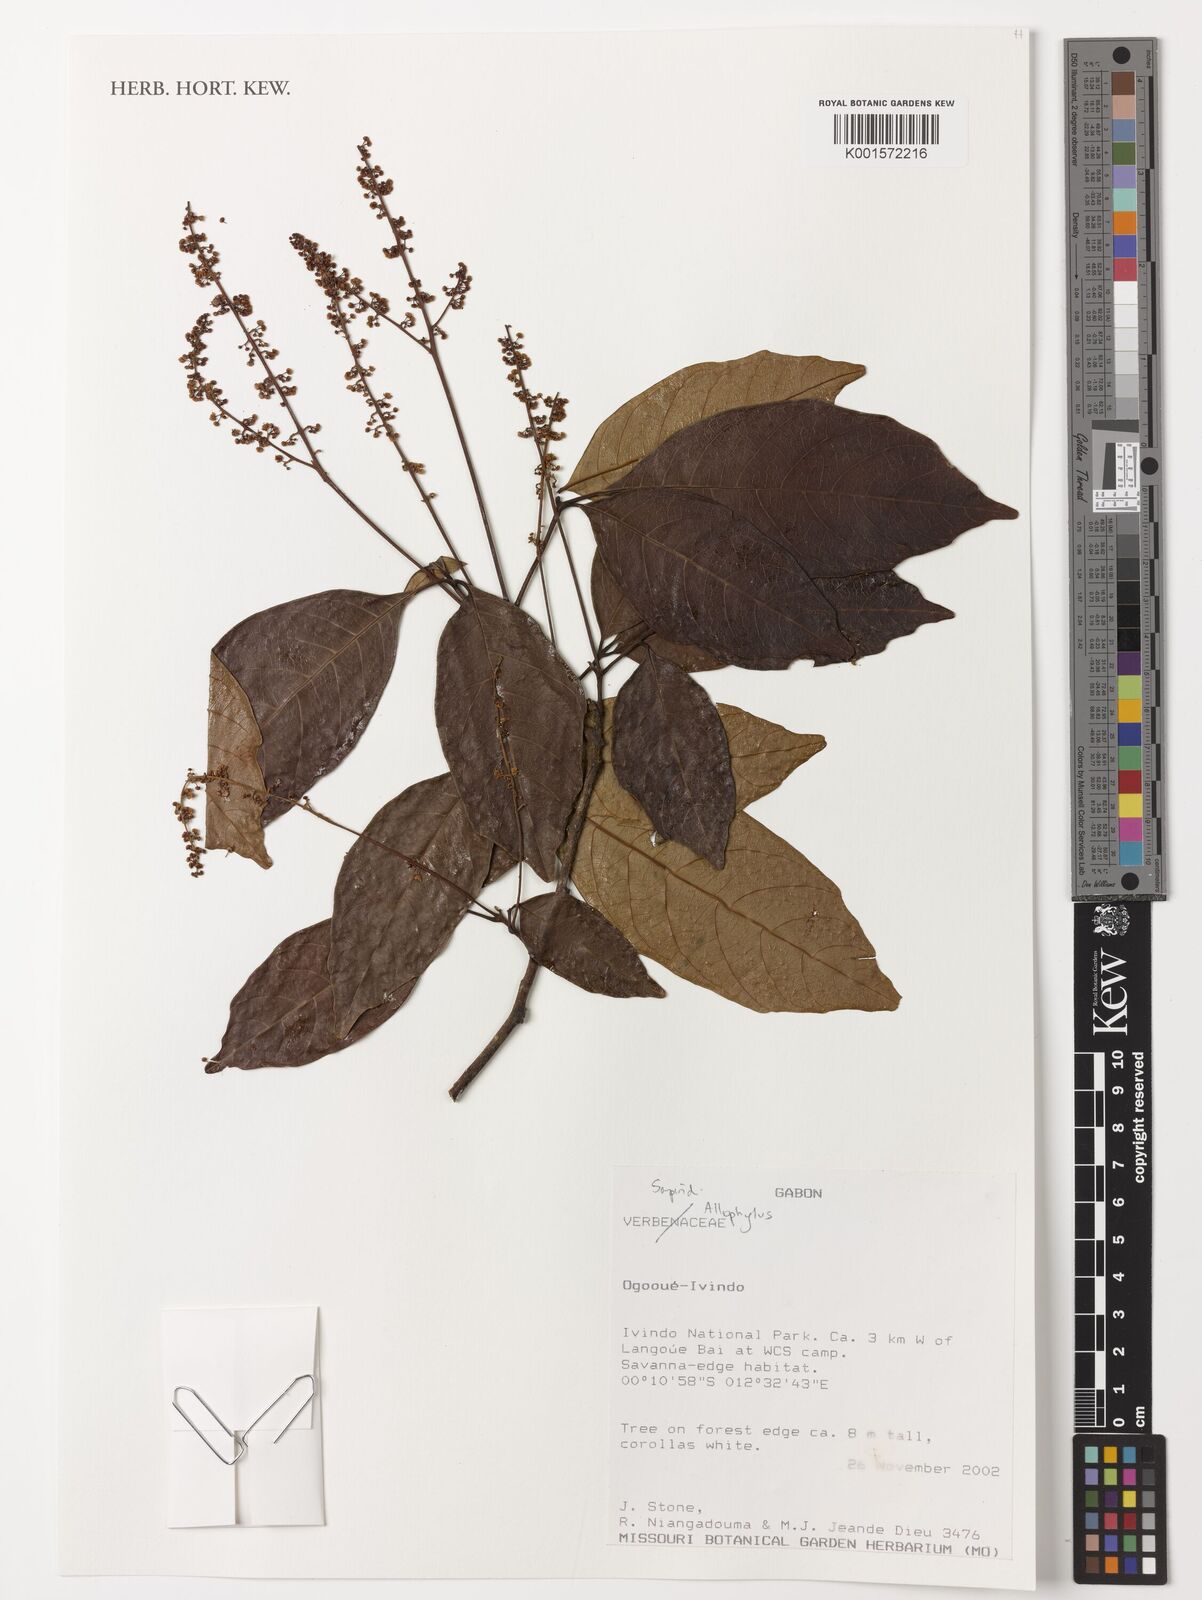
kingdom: Plantae
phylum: Tracheophyta
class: Magnoliopsida
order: Sapindales
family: Sapindaceae
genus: Allophylus
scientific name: Allophylus
